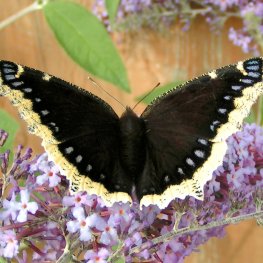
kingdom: Animalia
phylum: Arthropoda
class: Insecta
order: Lepidoptera
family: Nymphalidae
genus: Nymphalis
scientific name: Nymphalis antiopa
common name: Mourning Cloak
